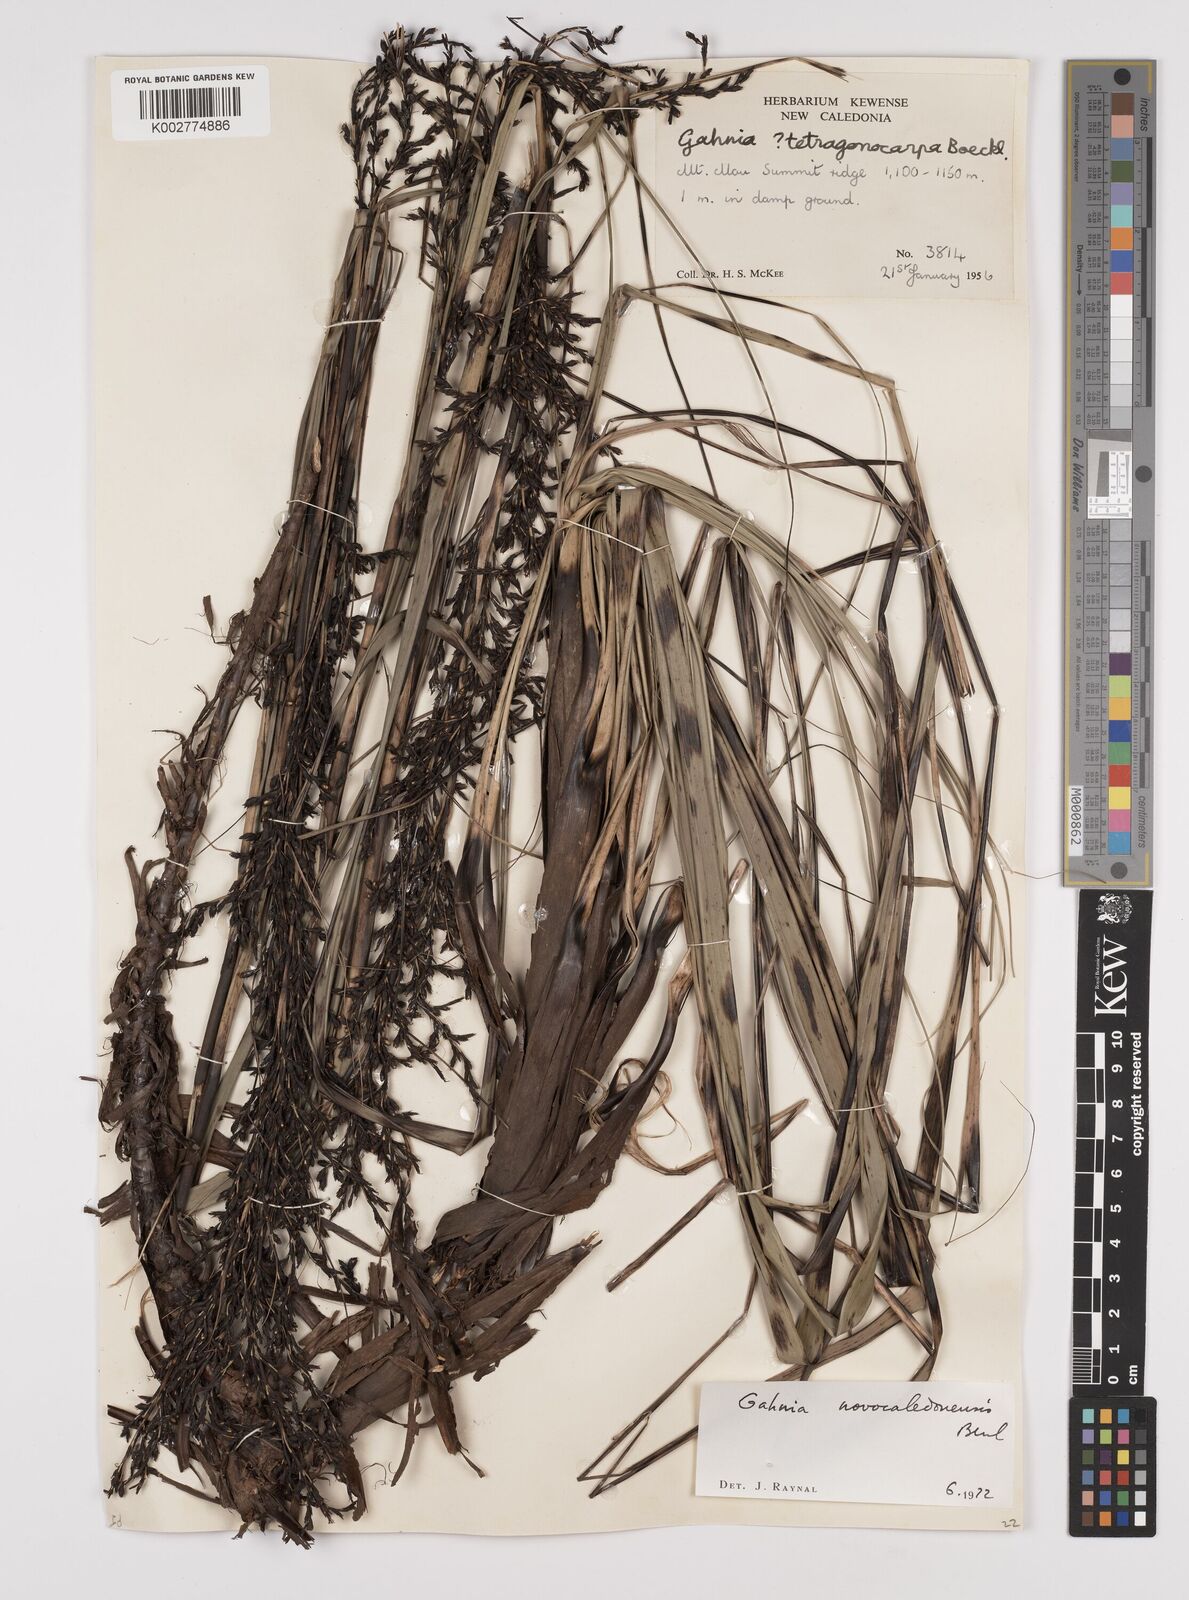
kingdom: Plantae
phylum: Tracheophyta
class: Liliopsida
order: Poales
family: Cyperaceae
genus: Gahnia
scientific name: Gahnia novocaledonensis
